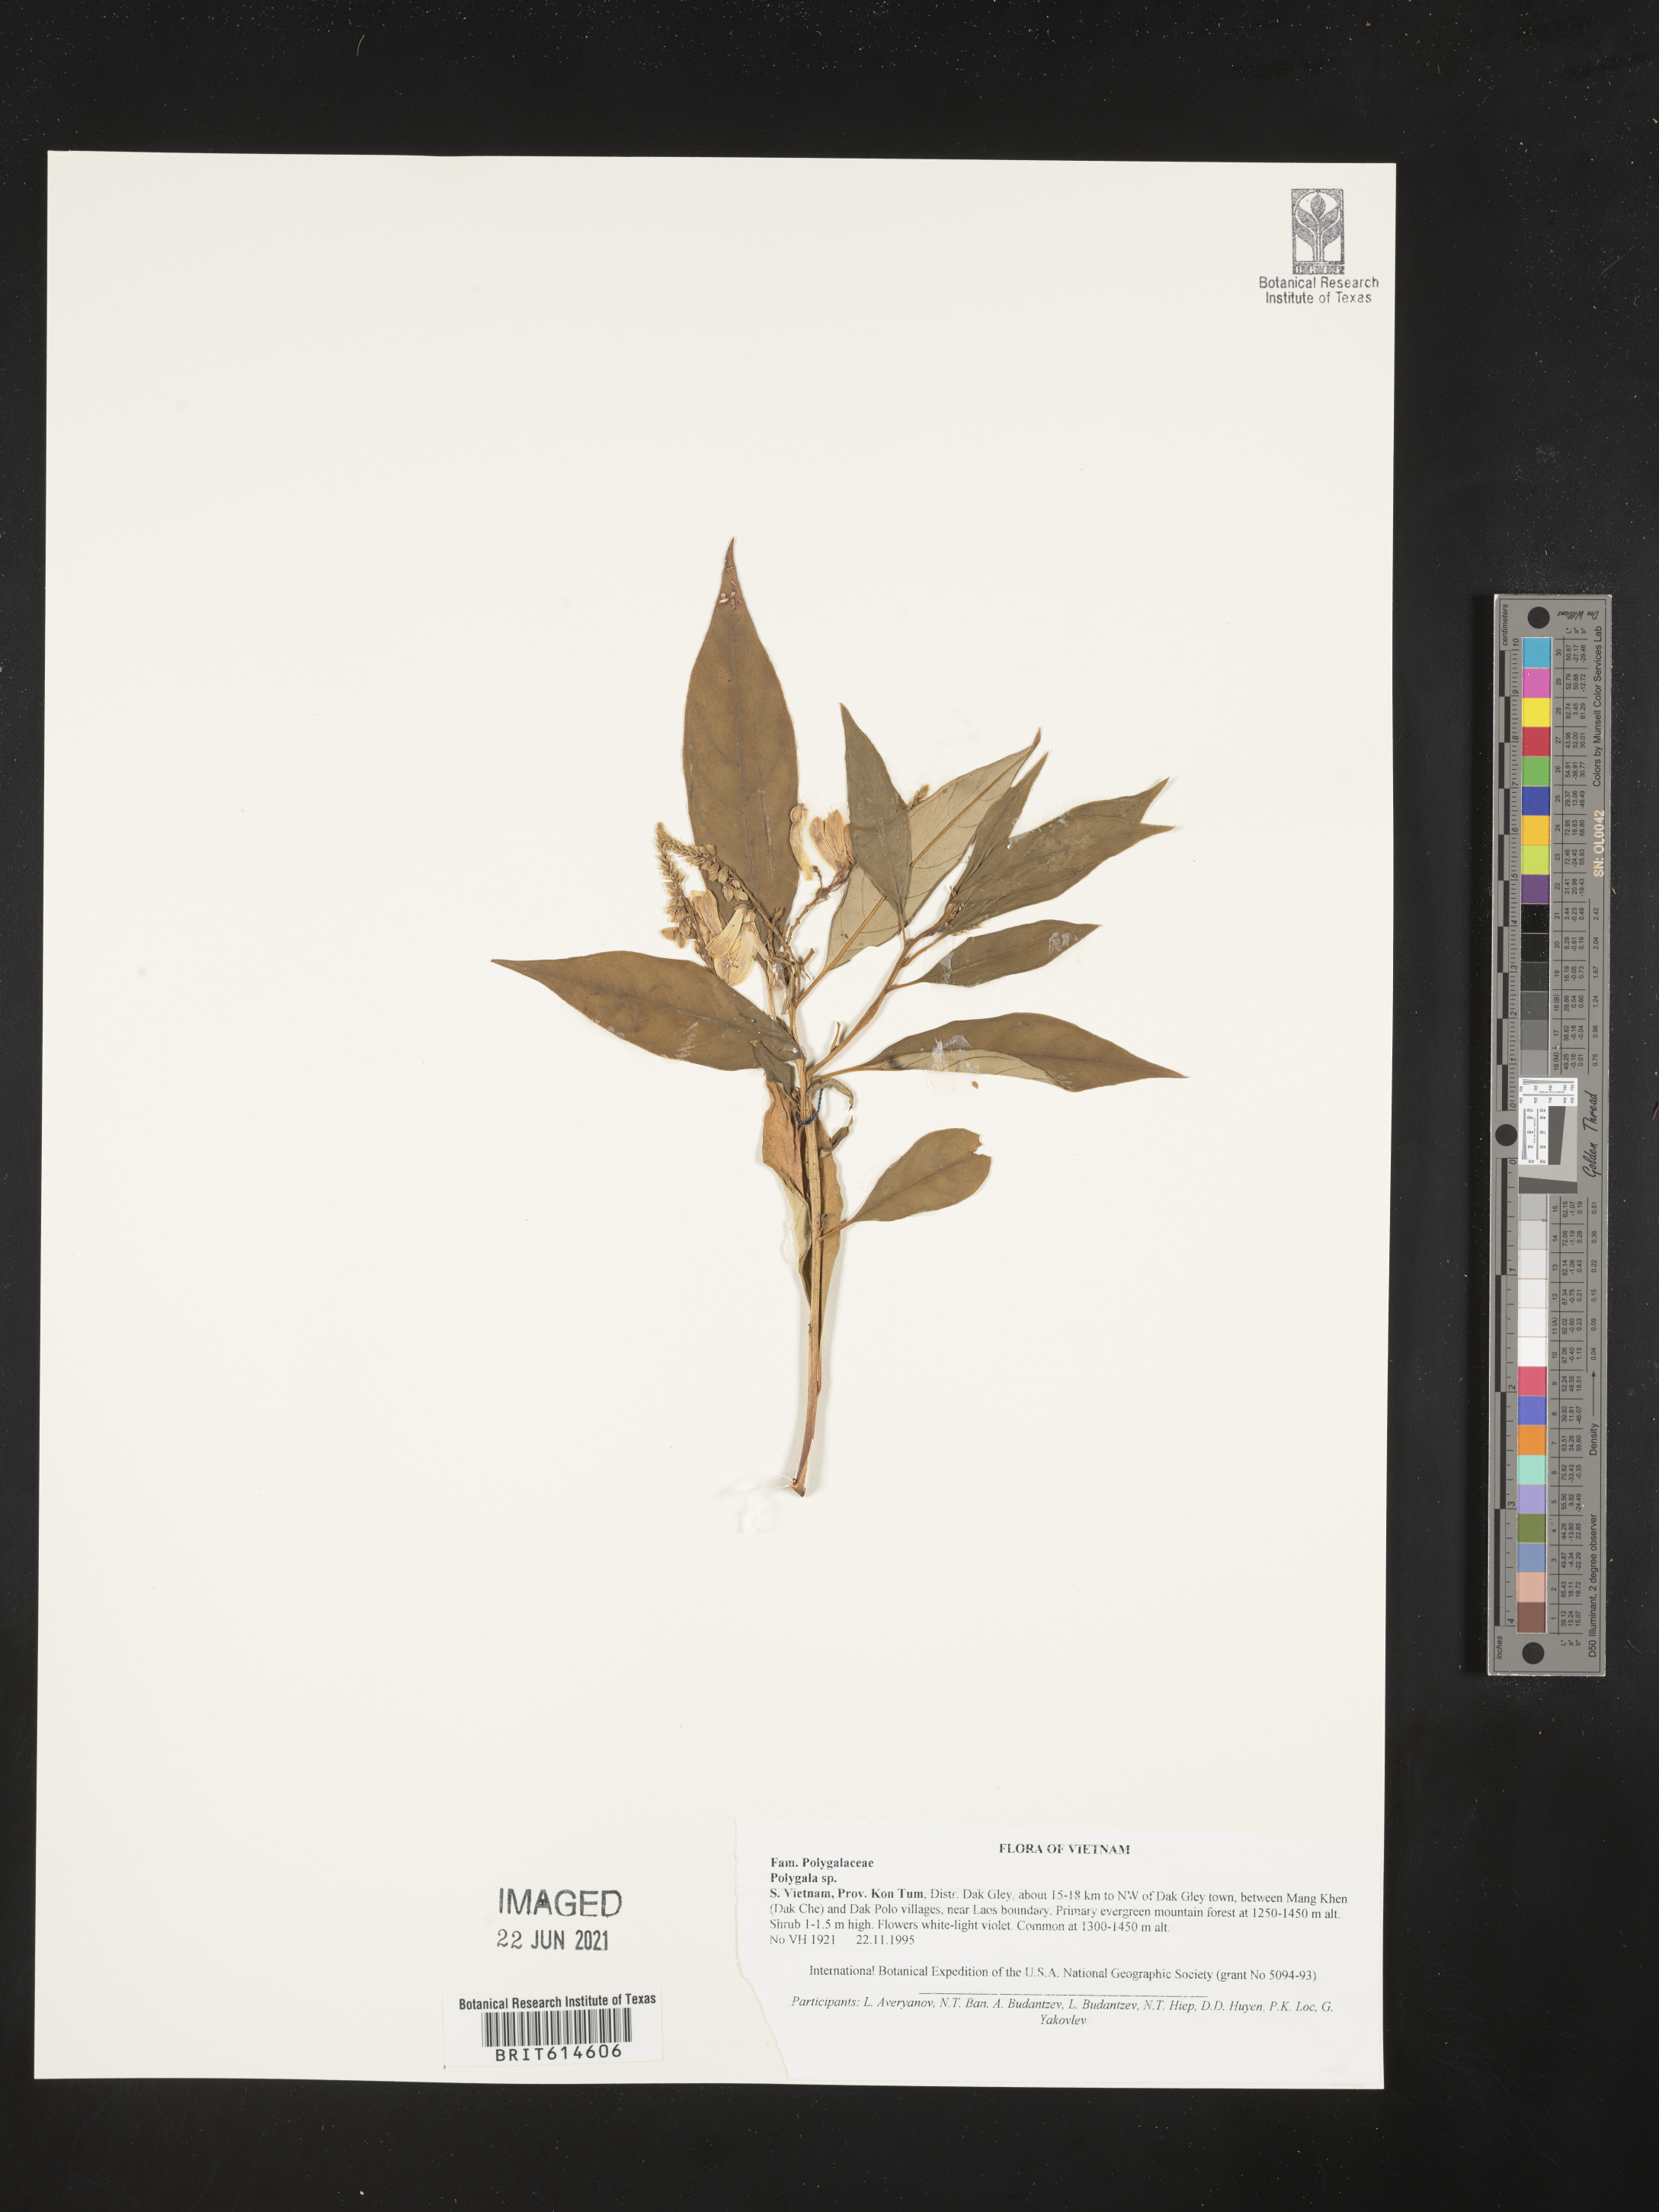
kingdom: Plantae
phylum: Tracheophyta
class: Magnoliopsida
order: Fabales
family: Polygalaceae
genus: Polygala
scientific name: Polygala
